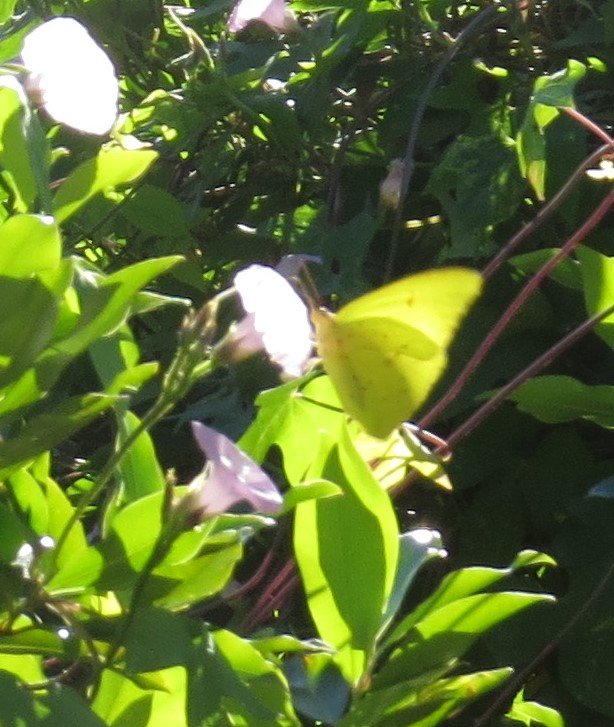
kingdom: Animalia
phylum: Arthropoda
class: Insecta
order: Lepidoptera
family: Pieridae
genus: Phoebis
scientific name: Phoebis sennae
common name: Cloudless Sulphur
